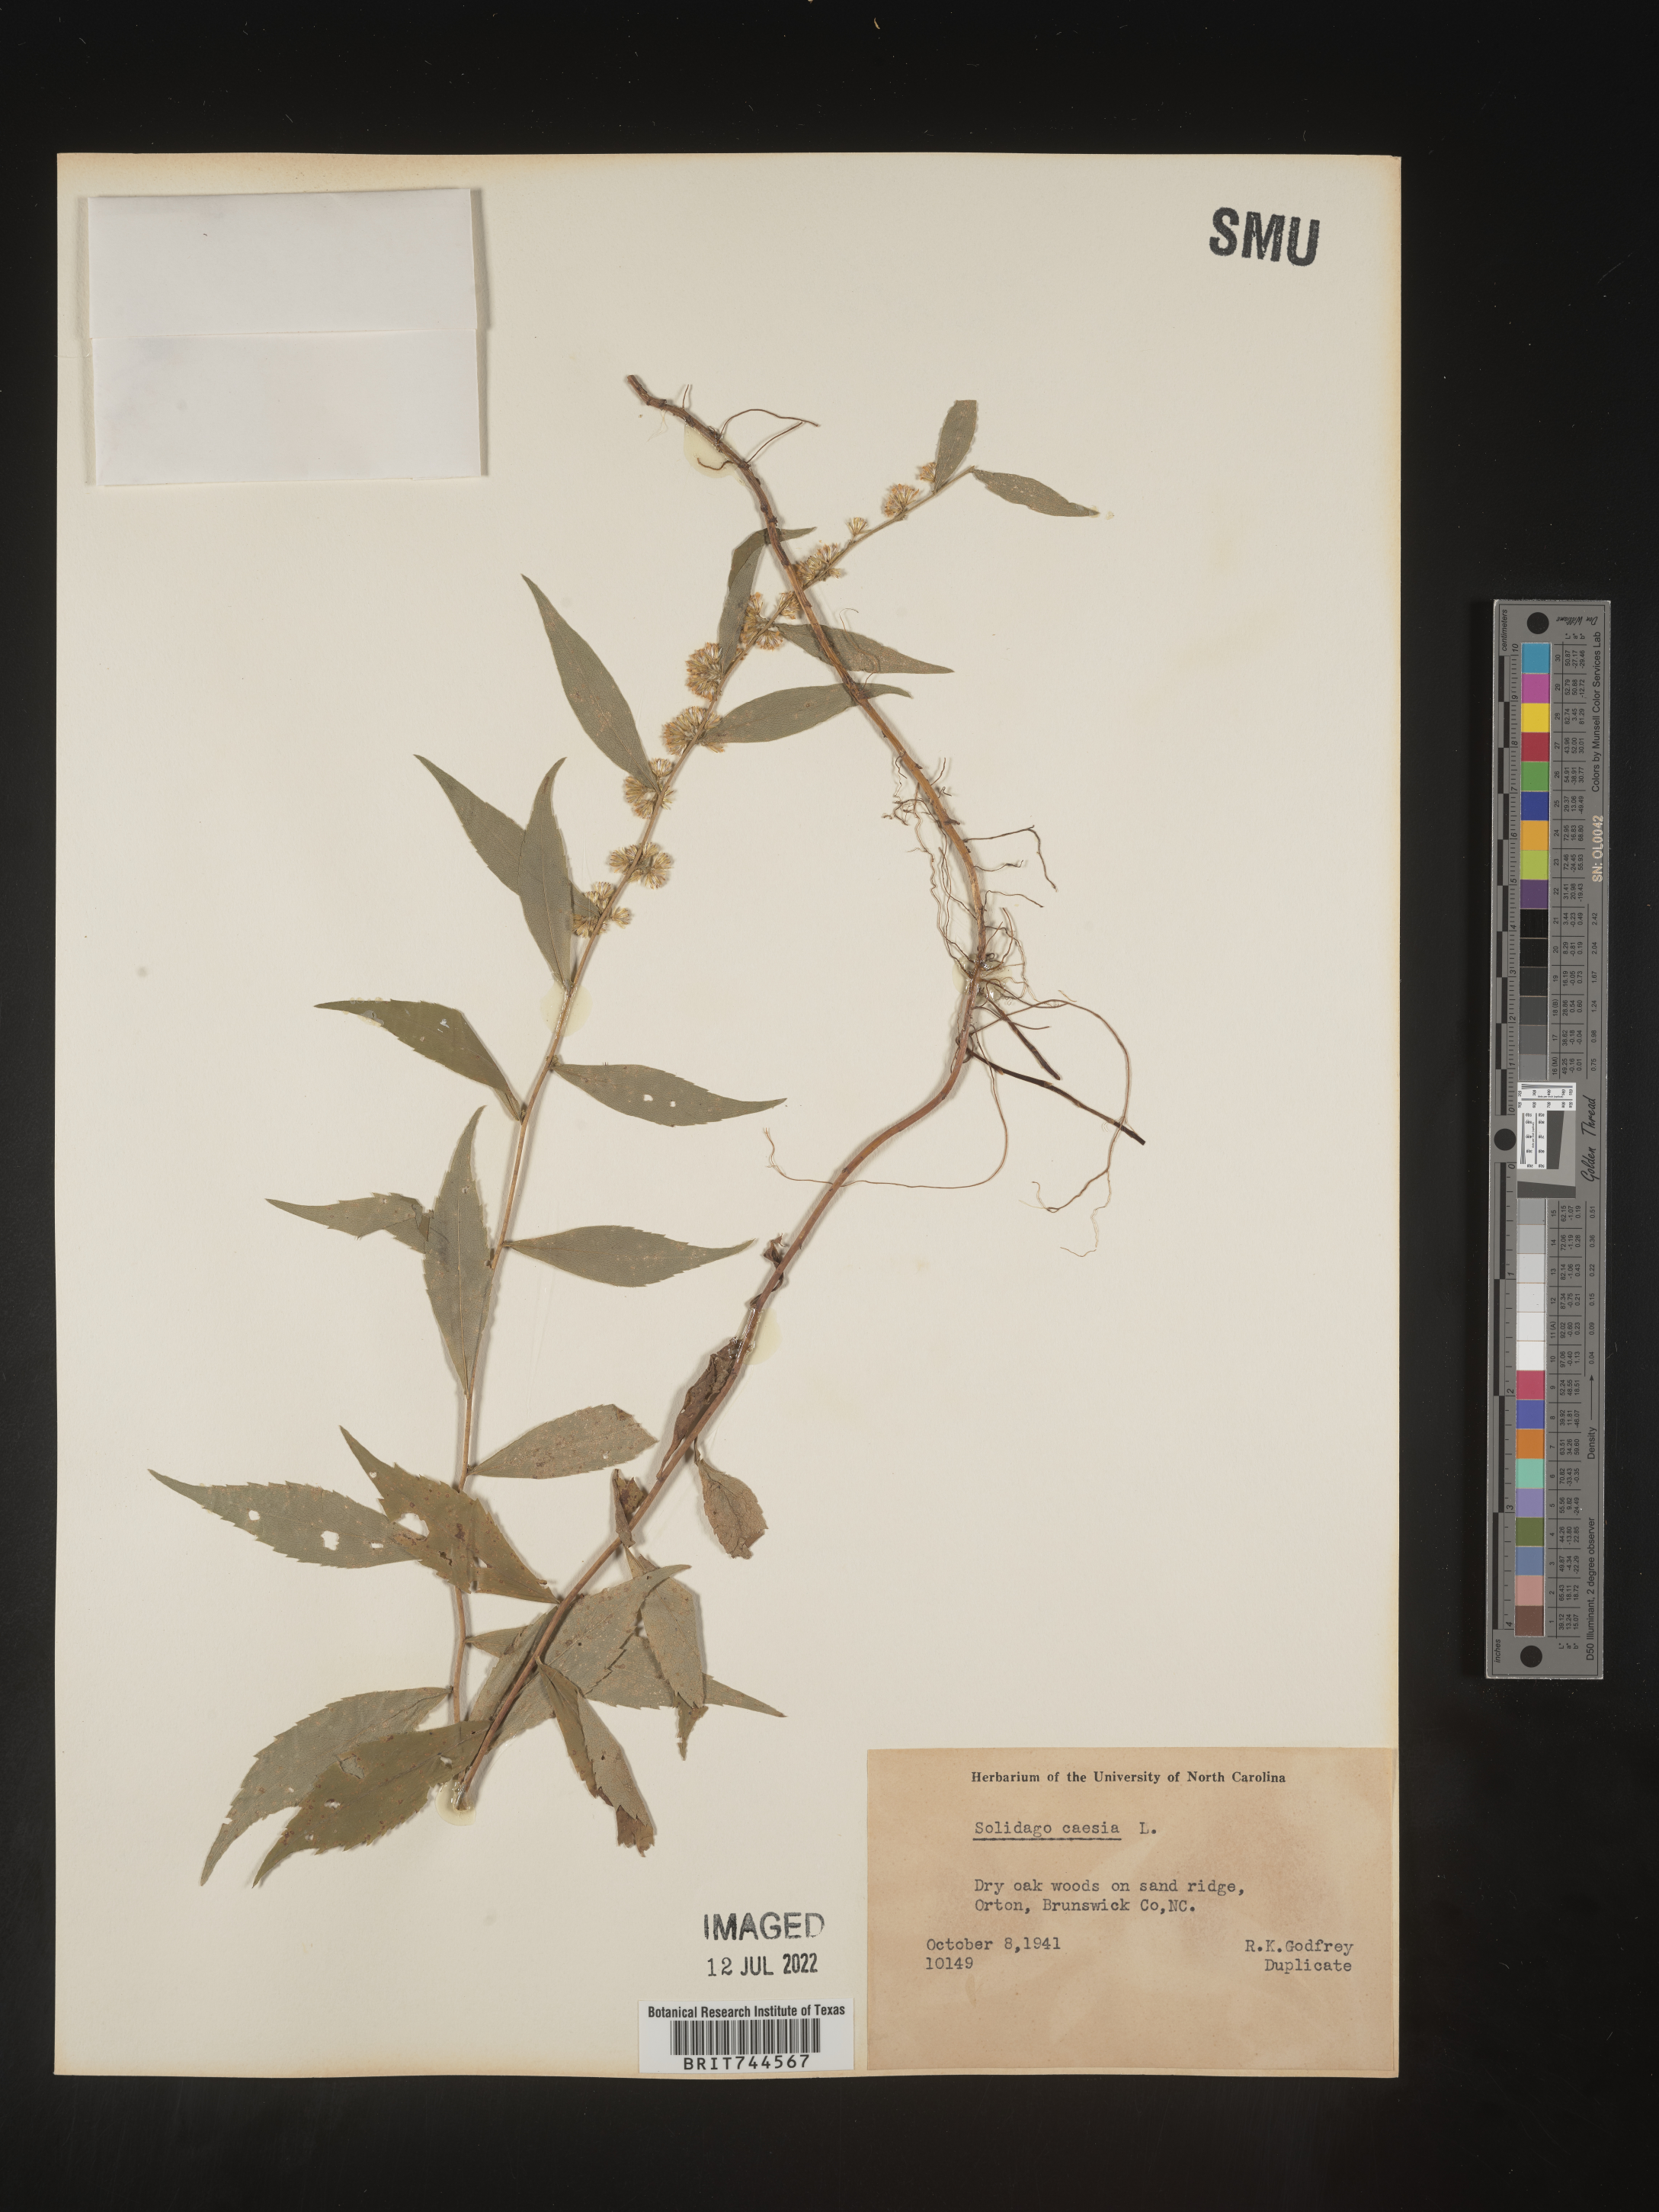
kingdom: Plantae
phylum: Tracheophyta
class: Magnoliopsida
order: Asterales
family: Asteraceae
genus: Solidago
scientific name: Solidago caesia
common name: Woodland goldenrod
